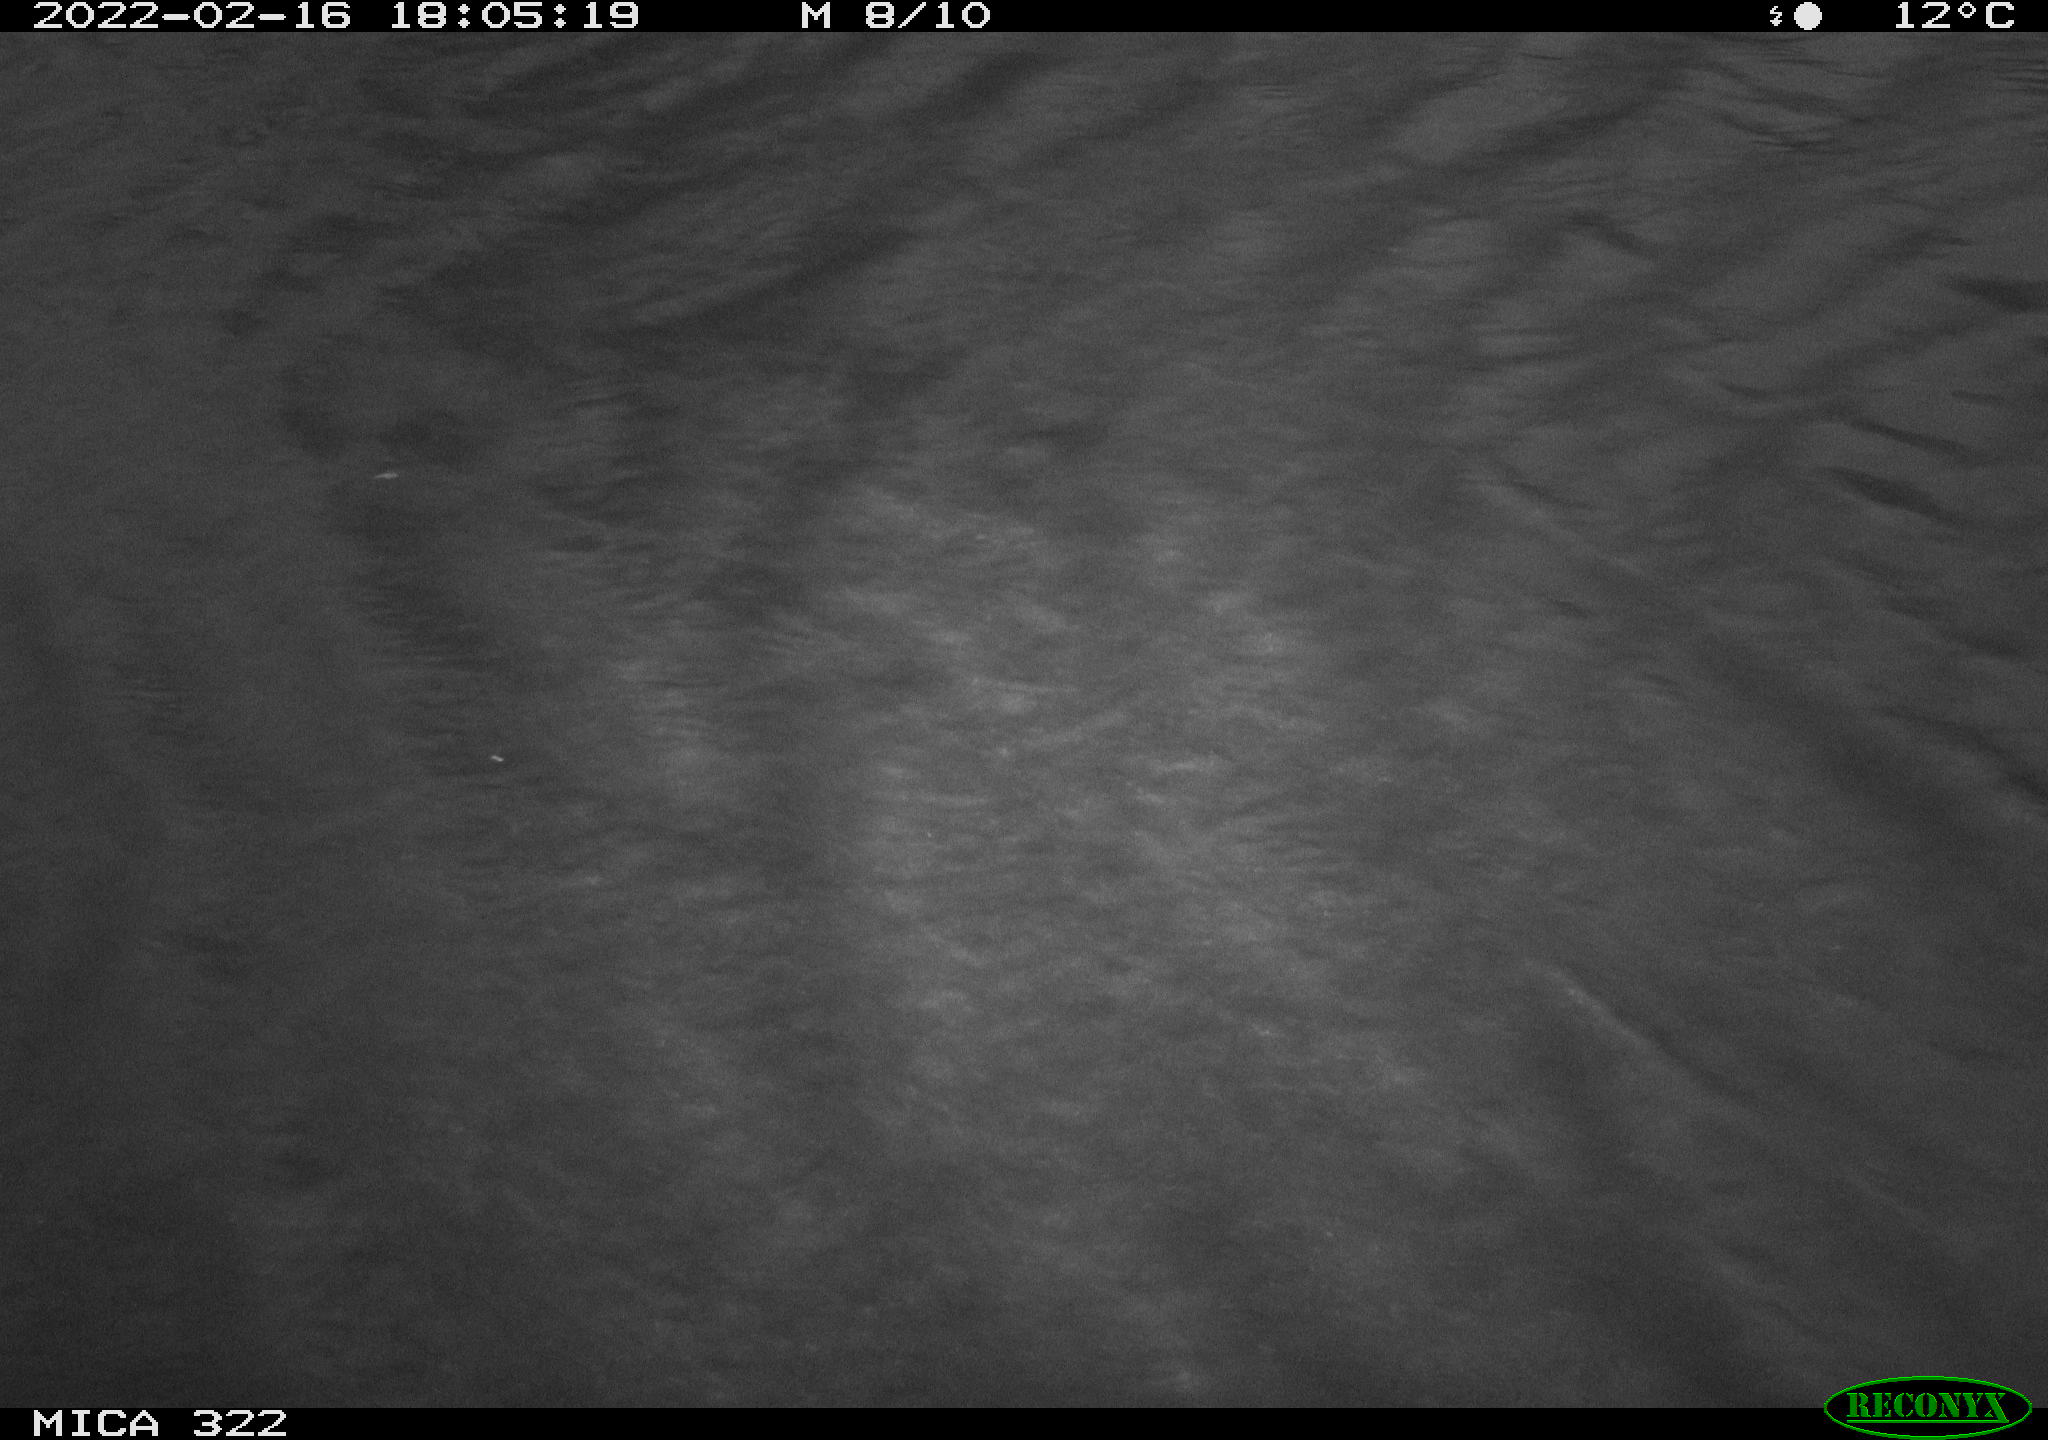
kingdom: Animalia
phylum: Chordata
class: Aves
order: Gruiformes
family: Rallidae
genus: Gallinula
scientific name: Gallinula chloropus
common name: Common moorhen
